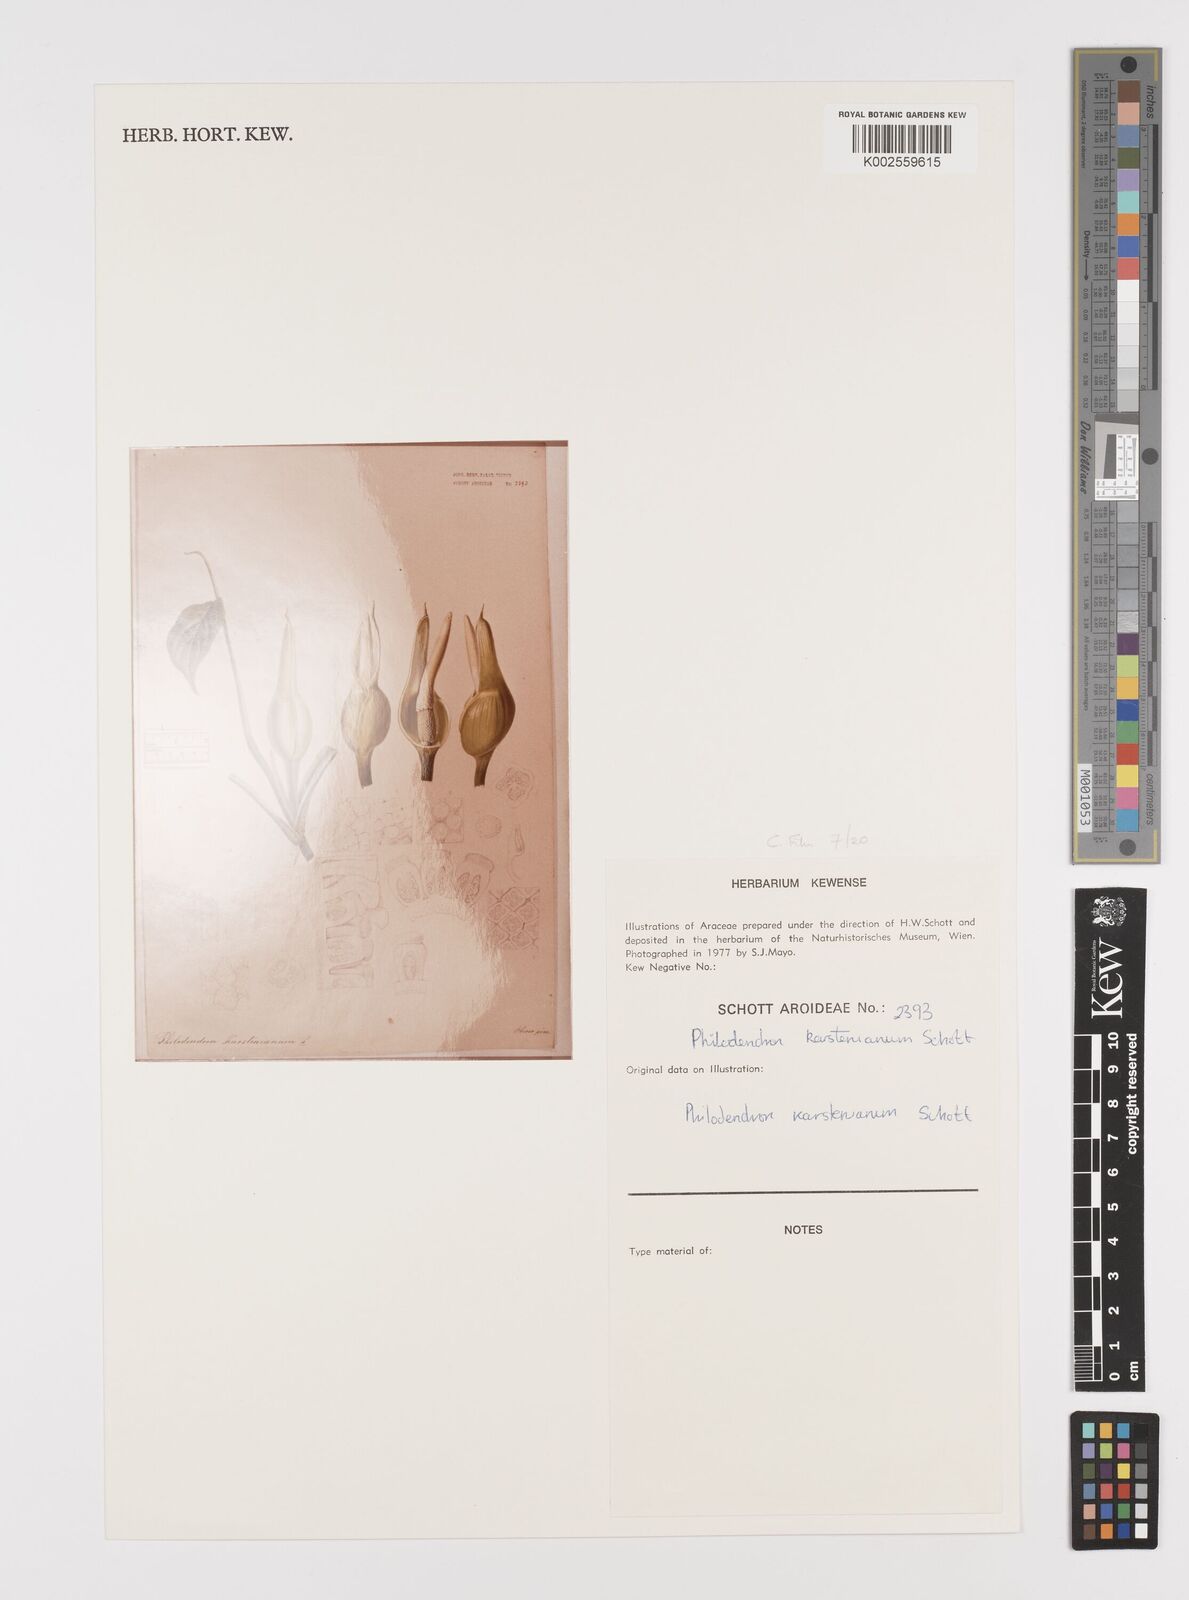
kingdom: Plantae
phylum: Tracheophyta
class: Liliopsida
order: Alismatales
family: Araceae
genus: Philodendron
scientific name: Philodendron venosum
